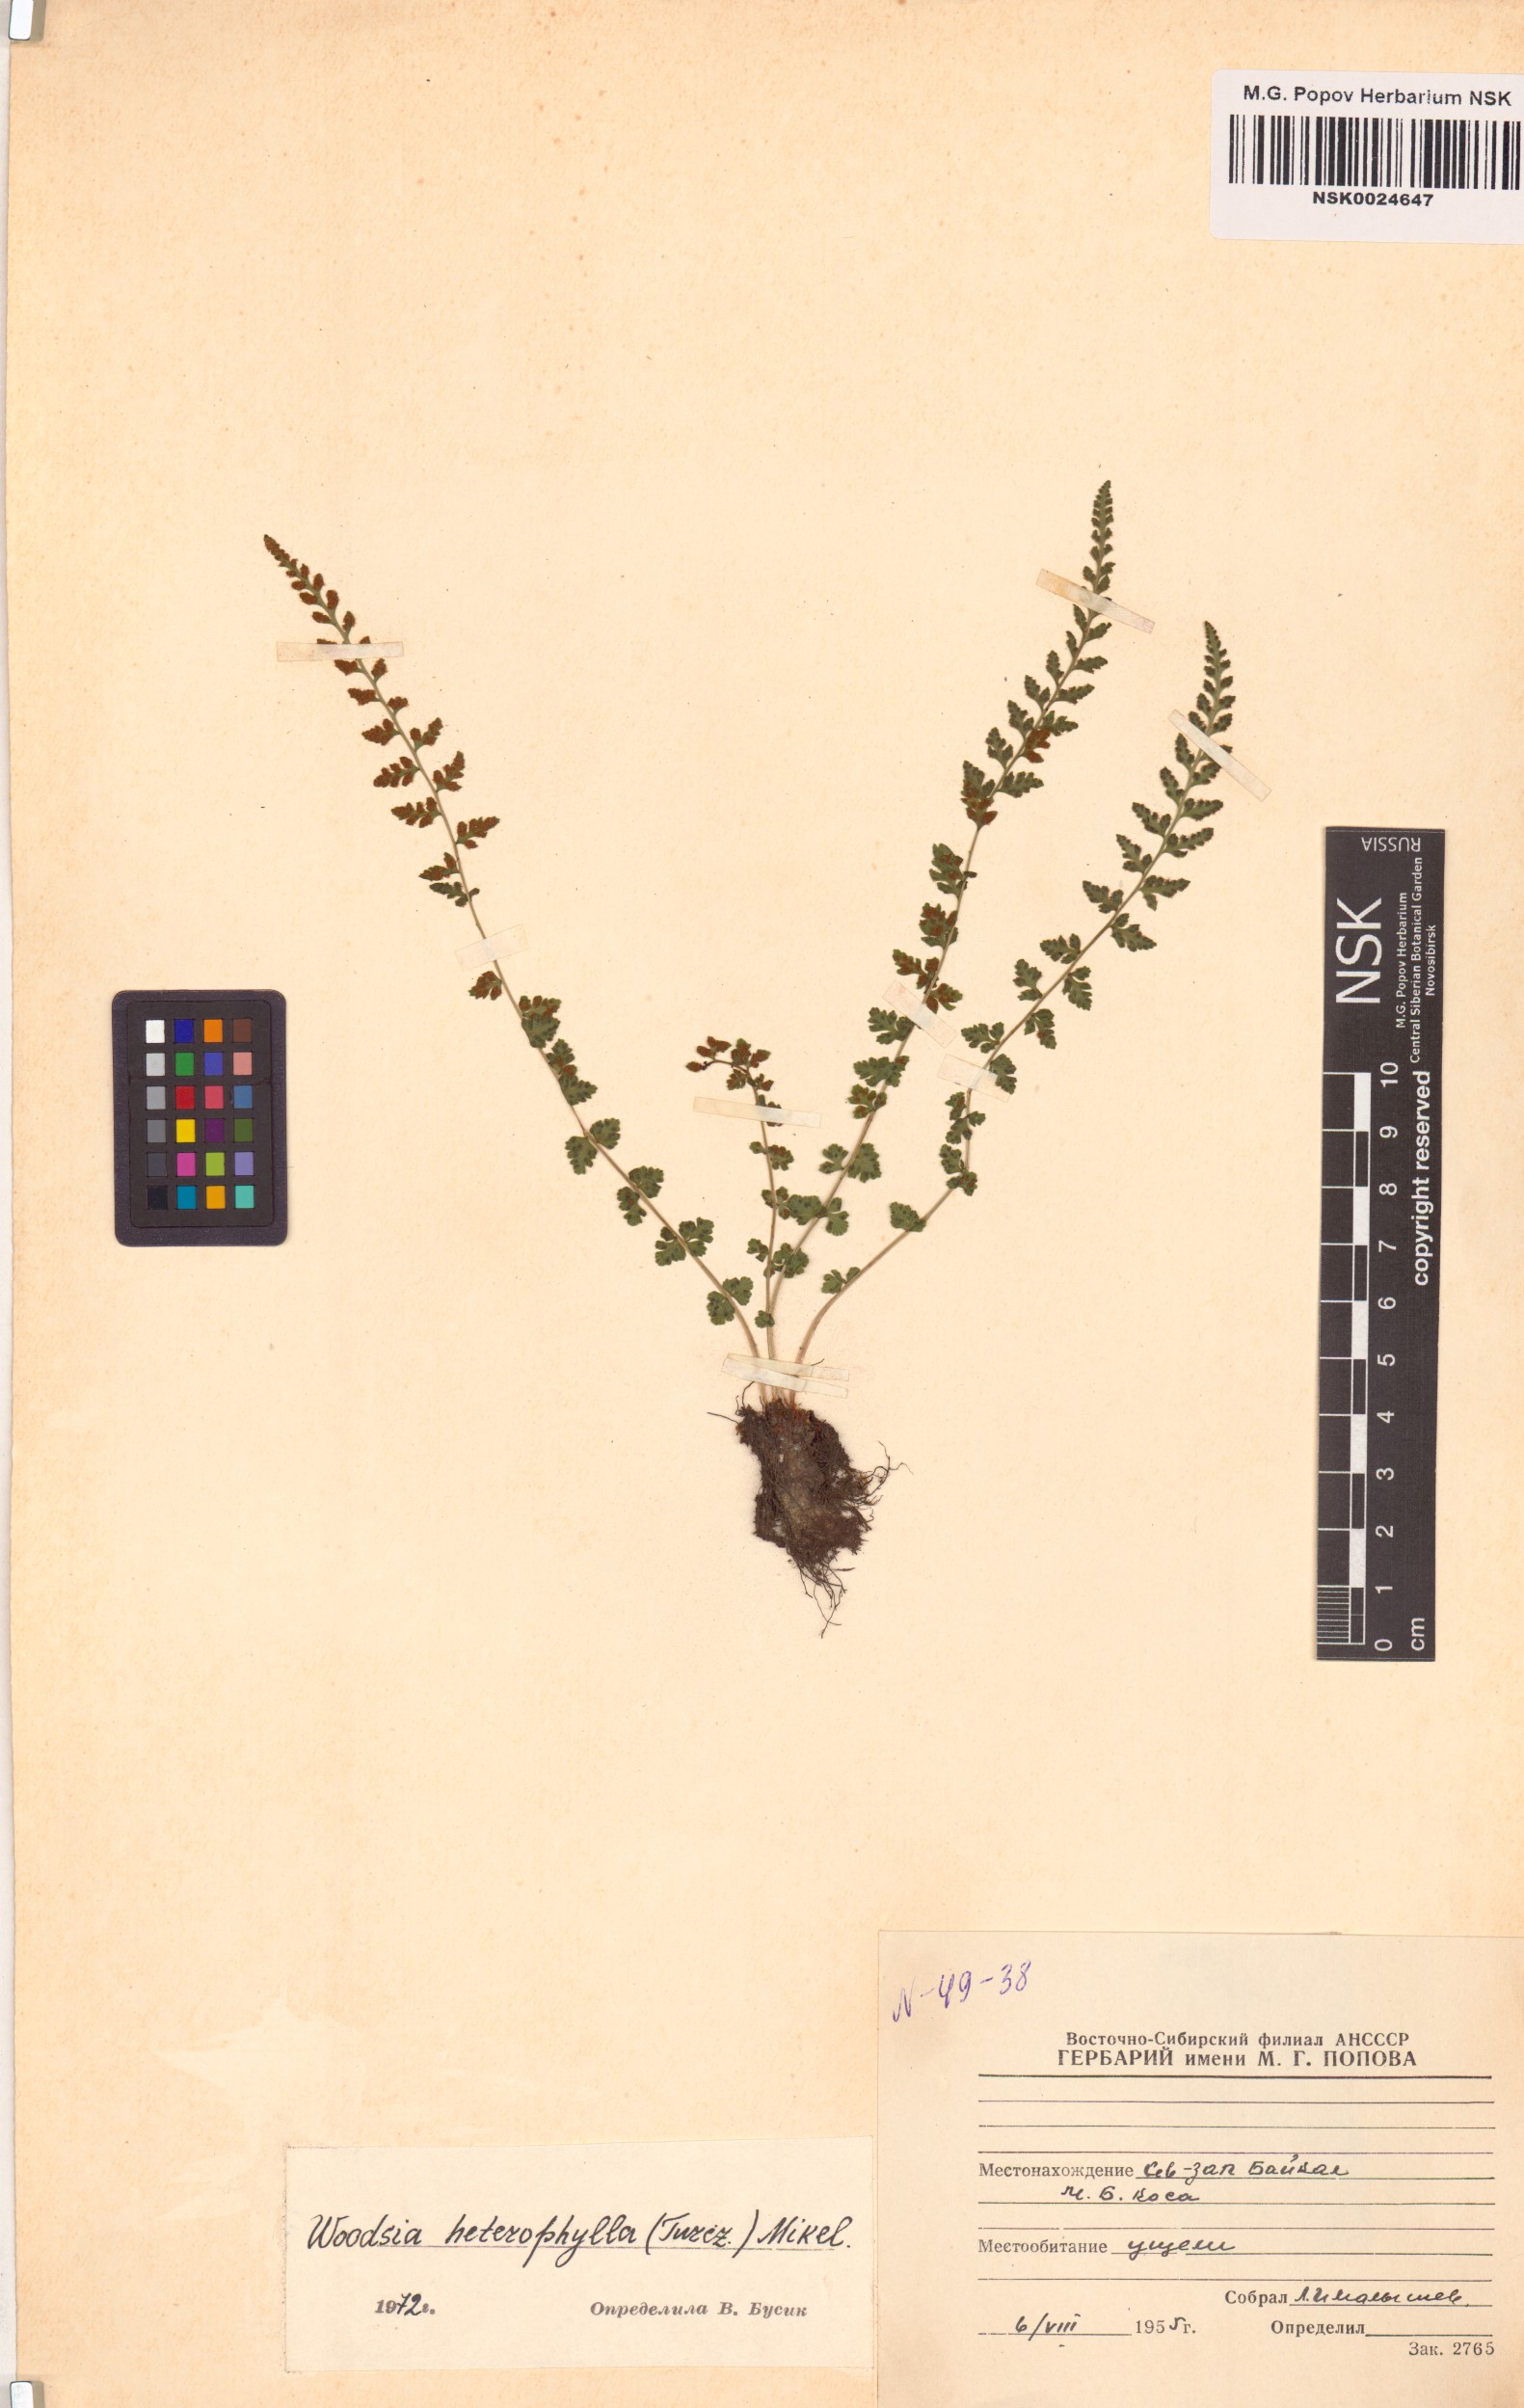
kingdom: Plantae
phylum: Tracheophyta
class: Polypodiopsida
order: Polypodiales
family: Woodsiaceae
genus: Woodsia
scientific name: Woodsia pulchella
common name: Graceful woodsia
